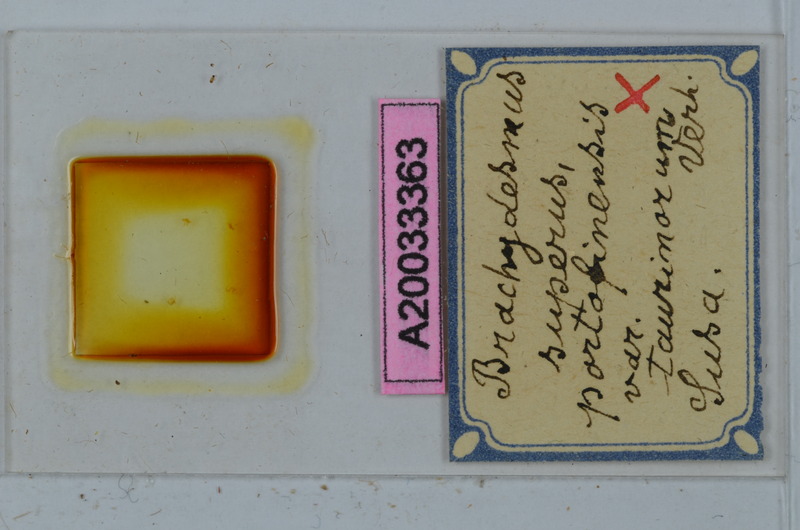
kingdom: Animalia
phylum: Arthropoda
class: Diplopoda
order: Polydesmida
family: Polydesmidae
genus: Brachydesmus
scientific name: Brachydesmus superus
